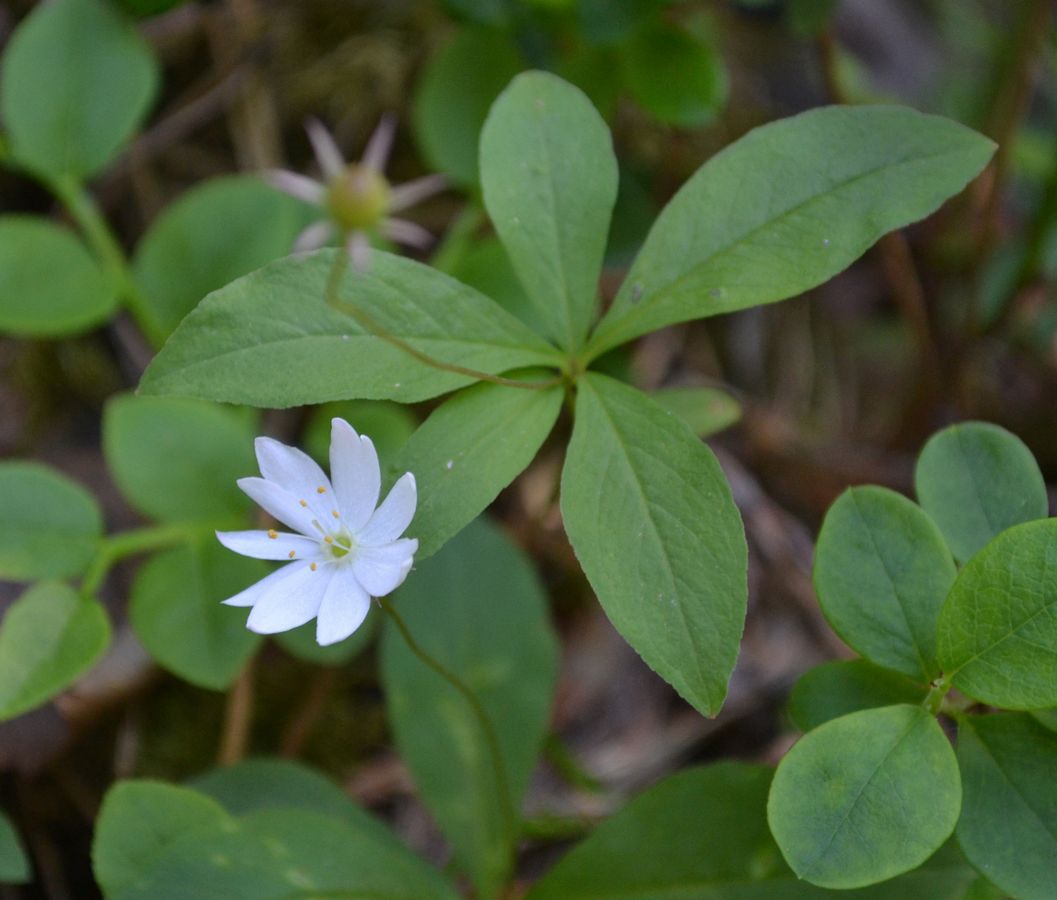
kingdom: Plantae
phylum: Tracheophyta
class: Magnoliopsida
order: Ericales
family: Primulaceae
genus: Lysimachia
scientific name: Lysimachia europaea
